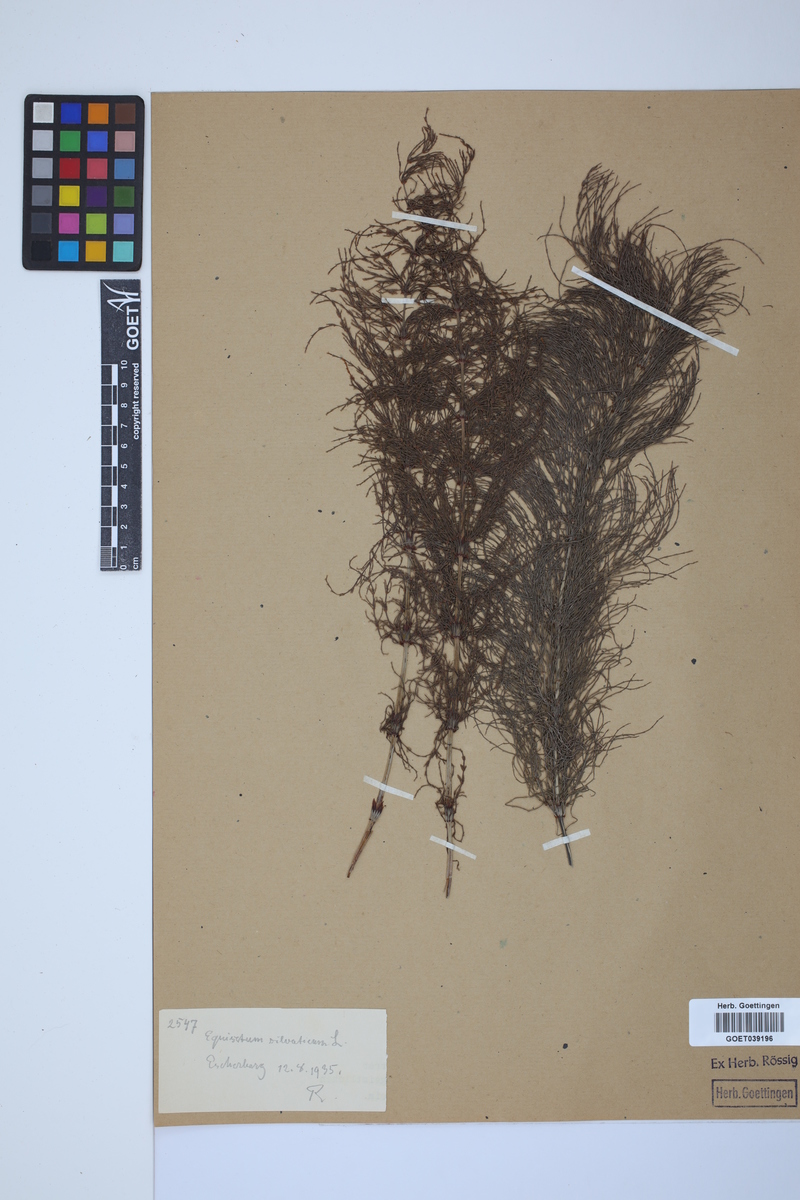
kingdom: Plantae
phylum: Tracheophyta
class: Polypodiopsida
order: Equisetales
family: Equisetaceae
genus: Equisetum
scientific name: Equisetum sylvaticum
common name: Wood horsetail
